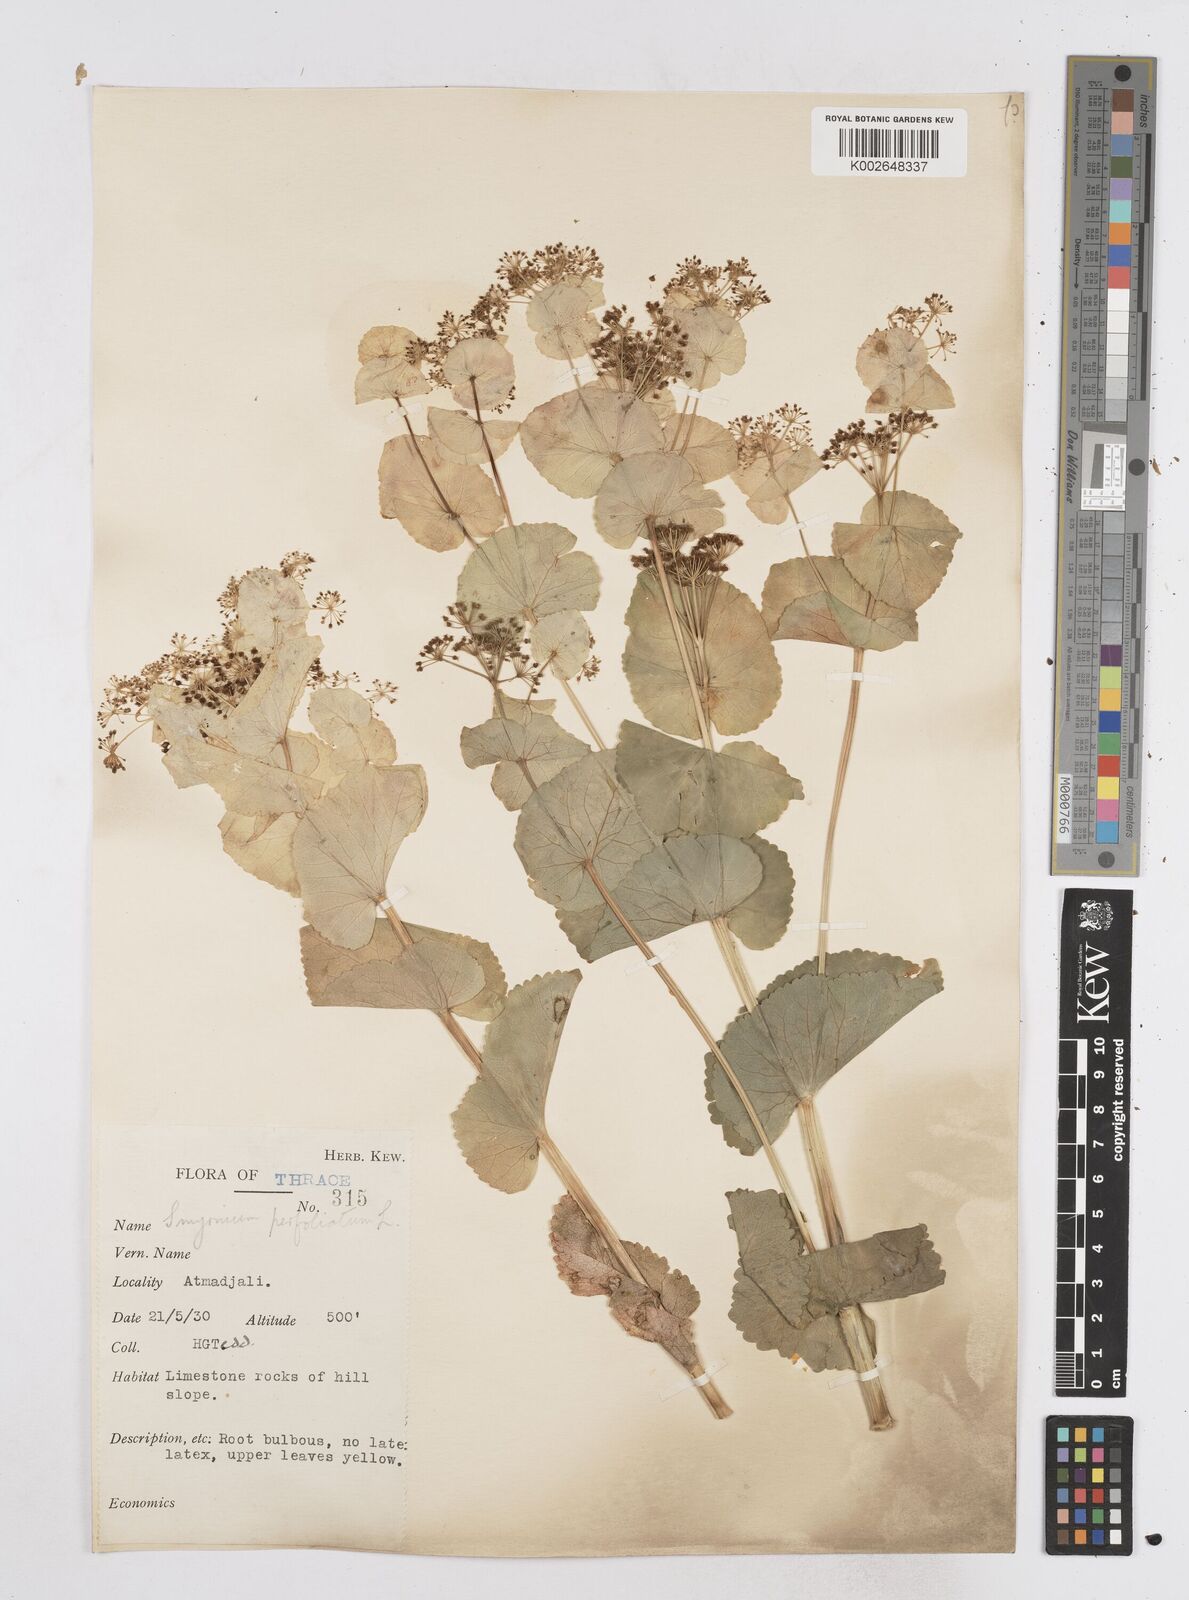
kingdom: Plantae
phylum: Tracheophyta
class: Magnoliopsida
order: Apiales
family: Apiaceae
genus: Smyrnium
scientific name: Smyrnium perfoliatum
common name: Perfoliate alexanders
